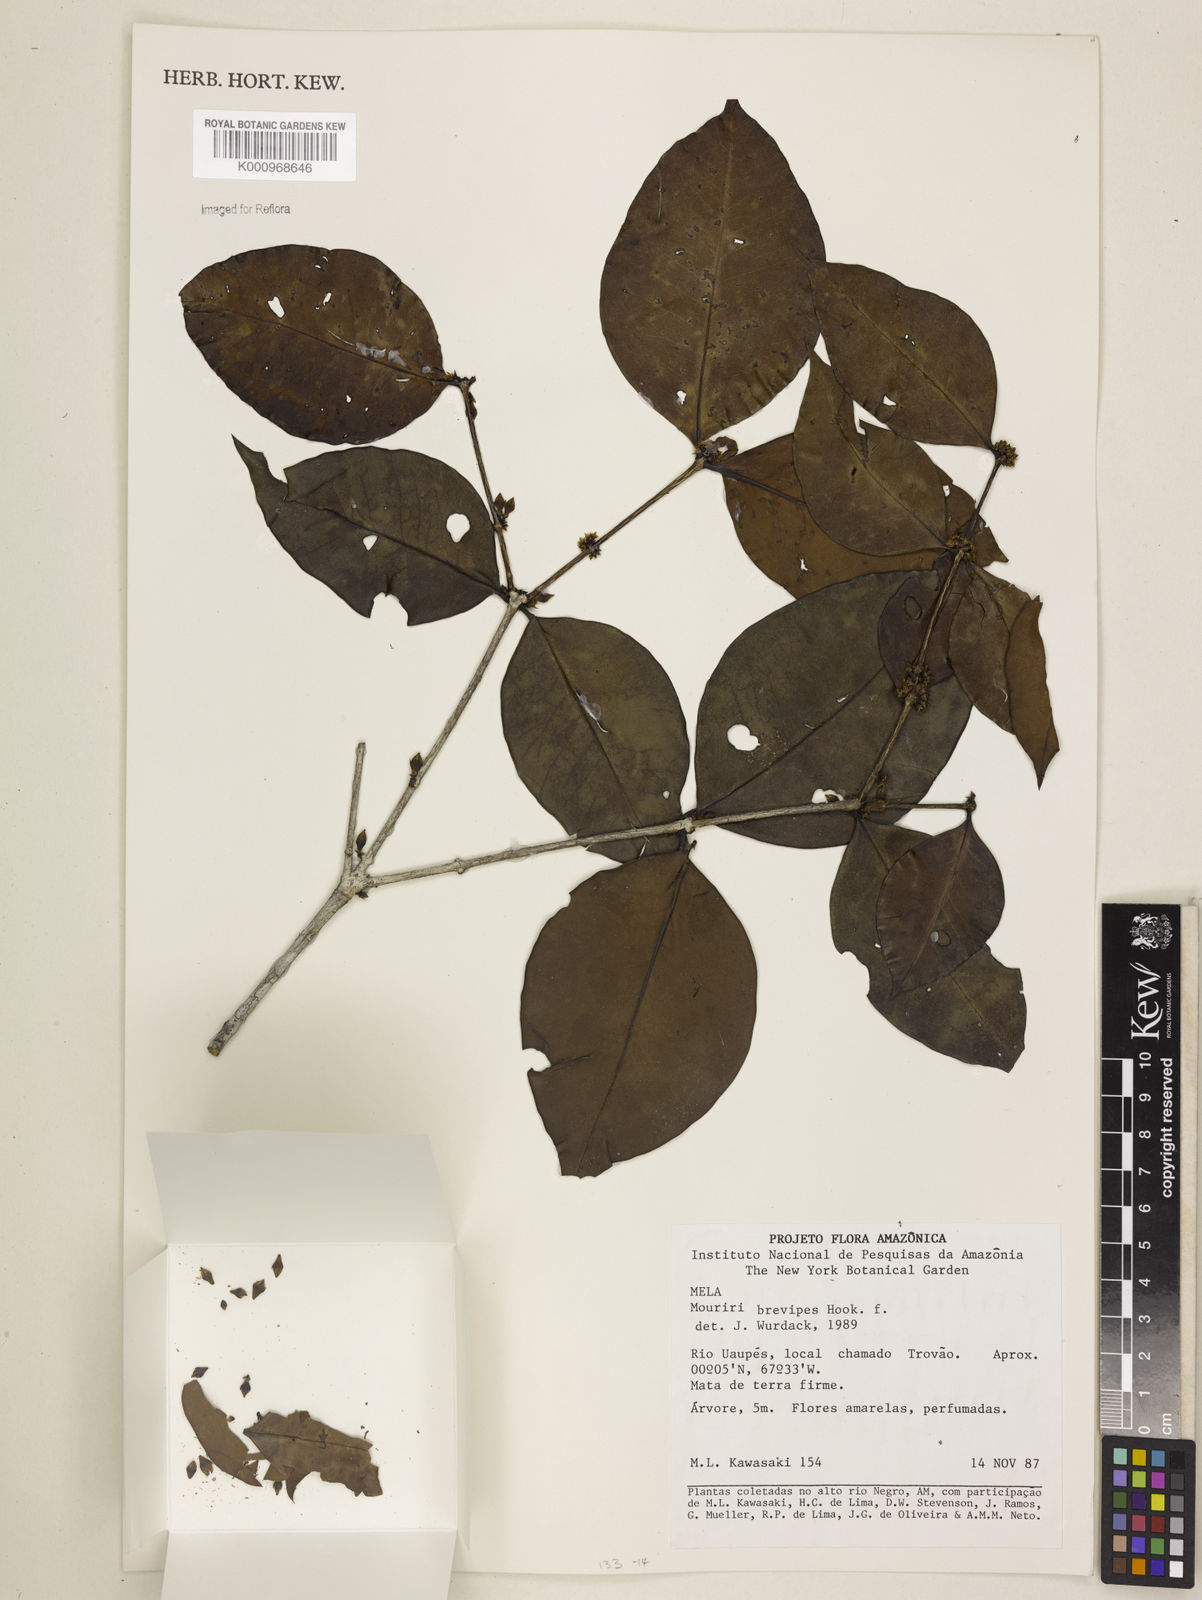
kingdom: Plantae
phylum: Tracheophyta
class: Magnoliopsida
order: Myrtales
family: Melastomataceae
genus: Mouriri
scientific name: Mouriri
